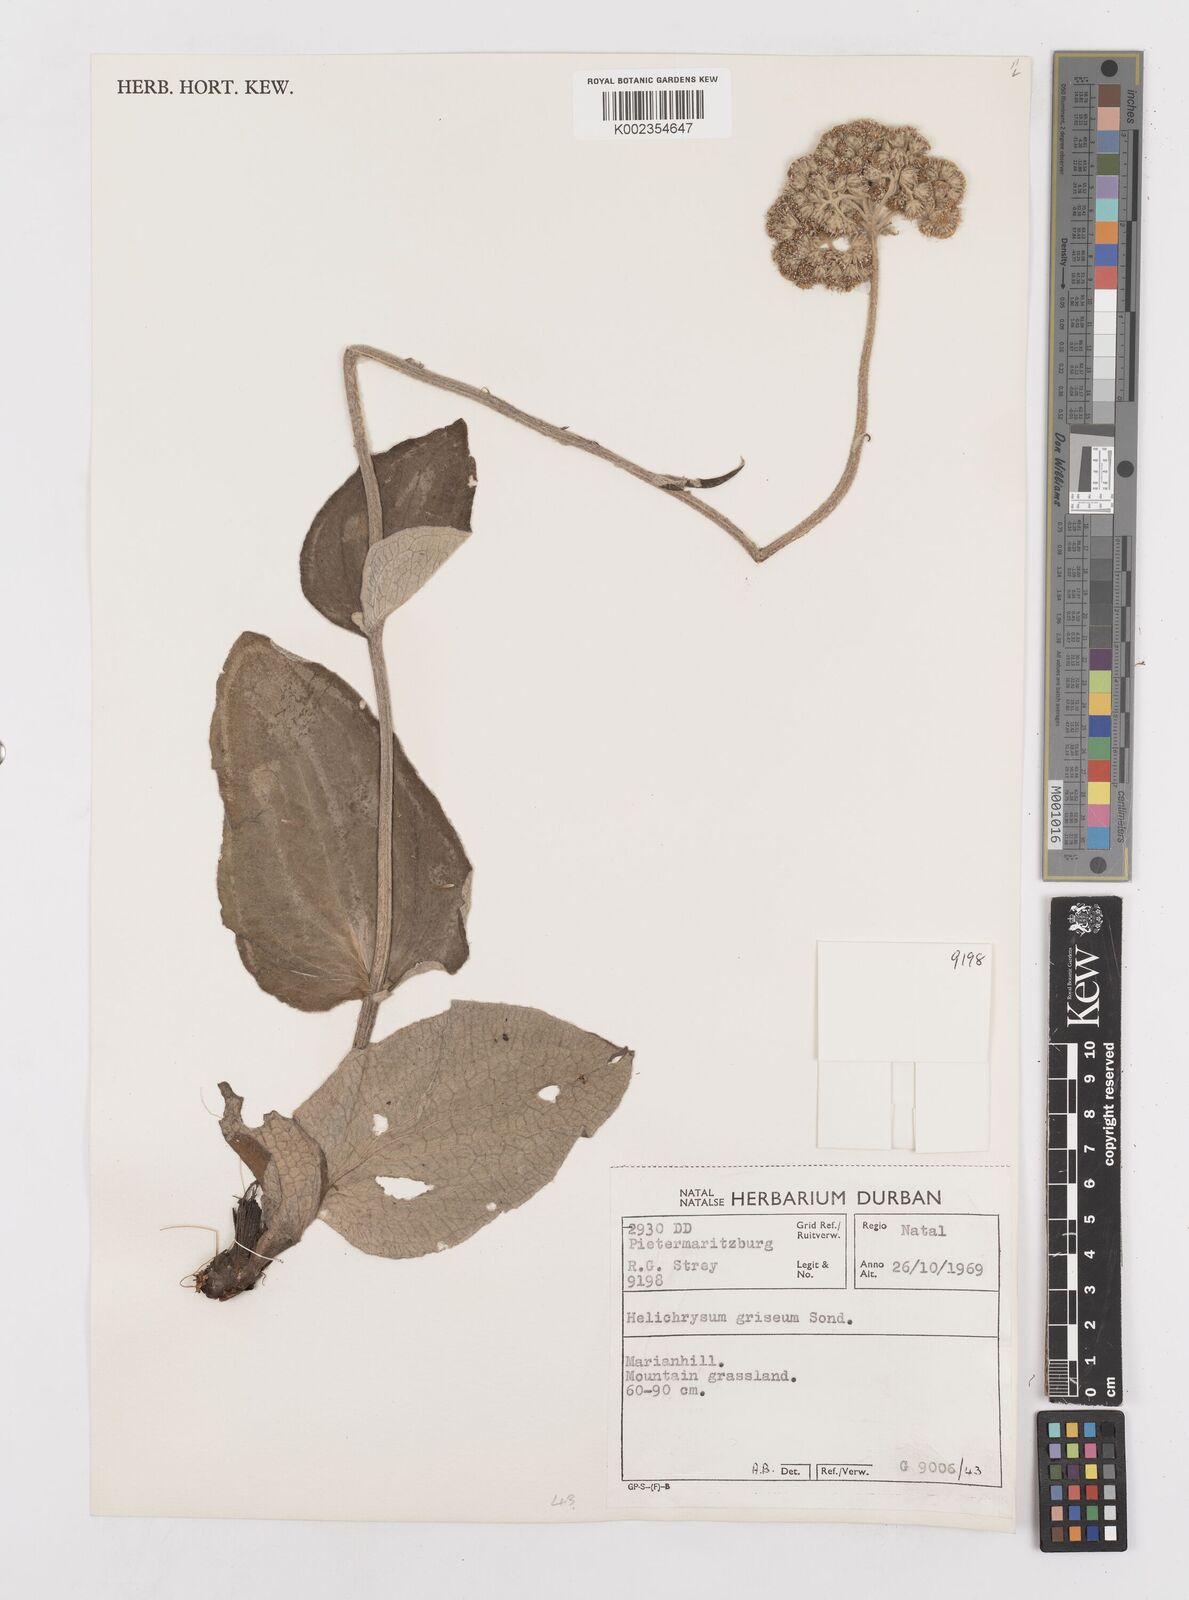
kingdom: Plantae
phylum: Tracheophyta
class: Magnoliopsida
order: Asterales
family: Asteraceae
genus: Helichrysum
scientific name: Helichrysum griseum
